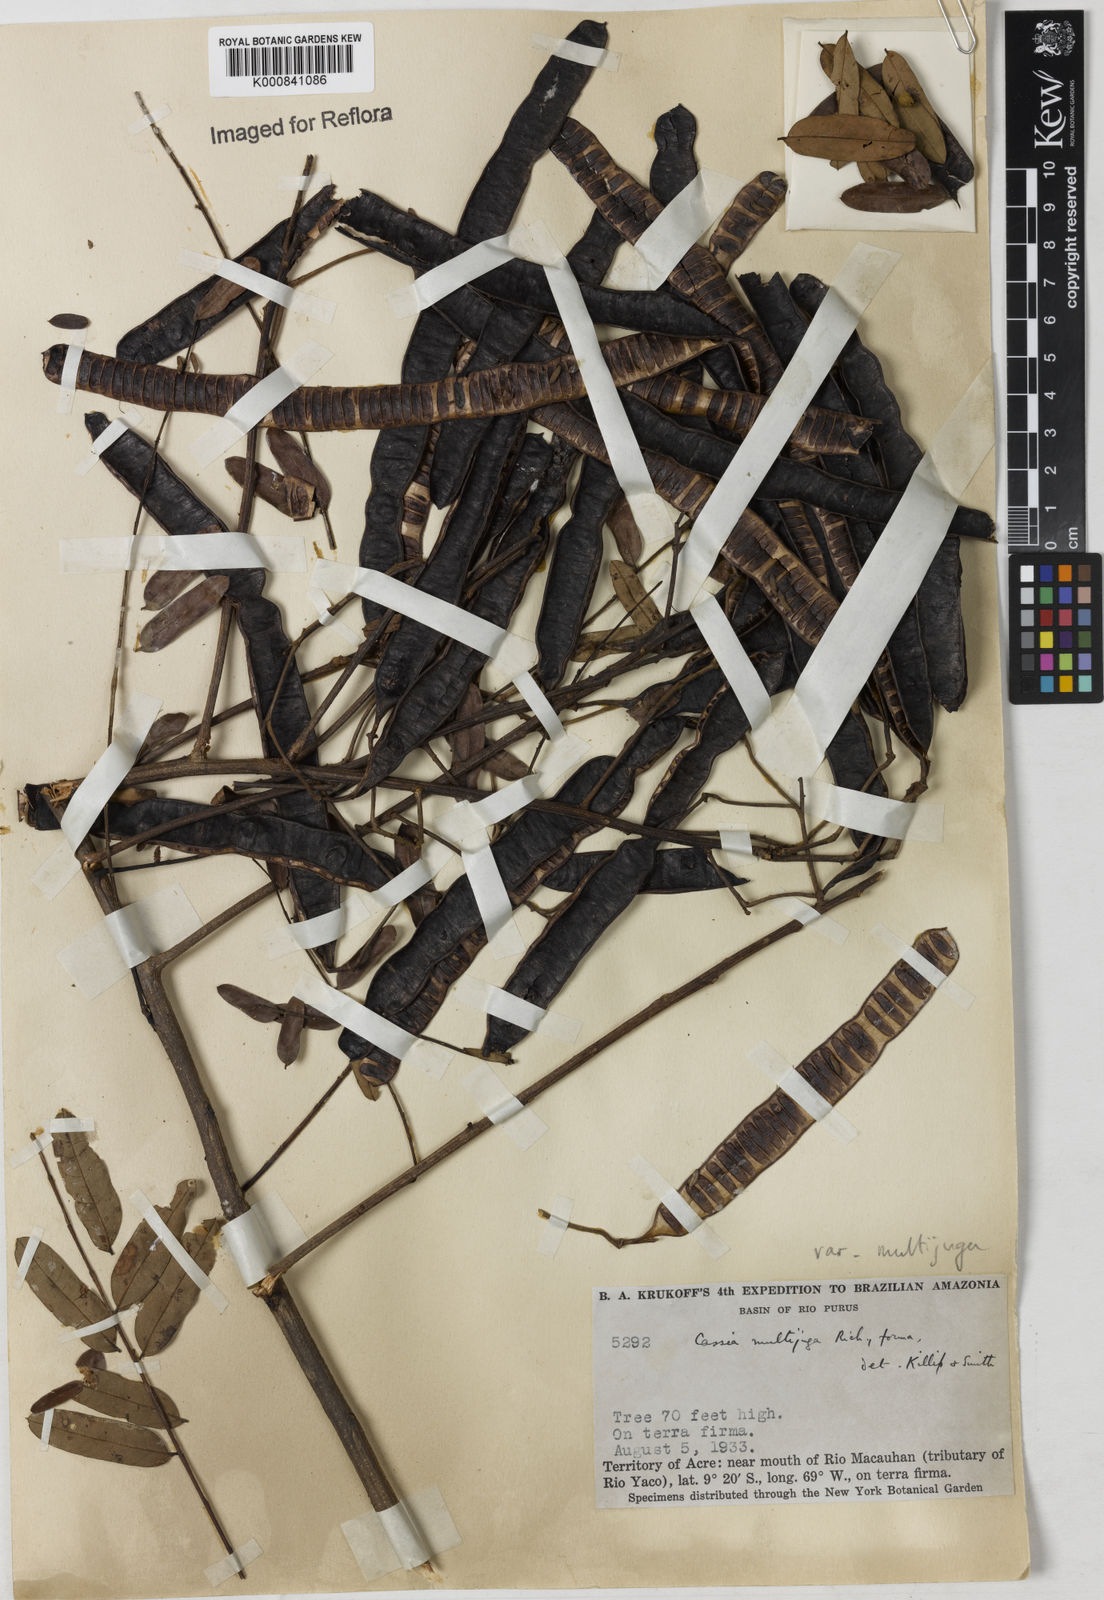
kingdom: Plantae
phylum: Tracheophyta
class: Magnoliopsida
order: Fabales
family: Fabaceae
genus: Senna
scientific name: Senna multijuga
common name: False sicklepod
